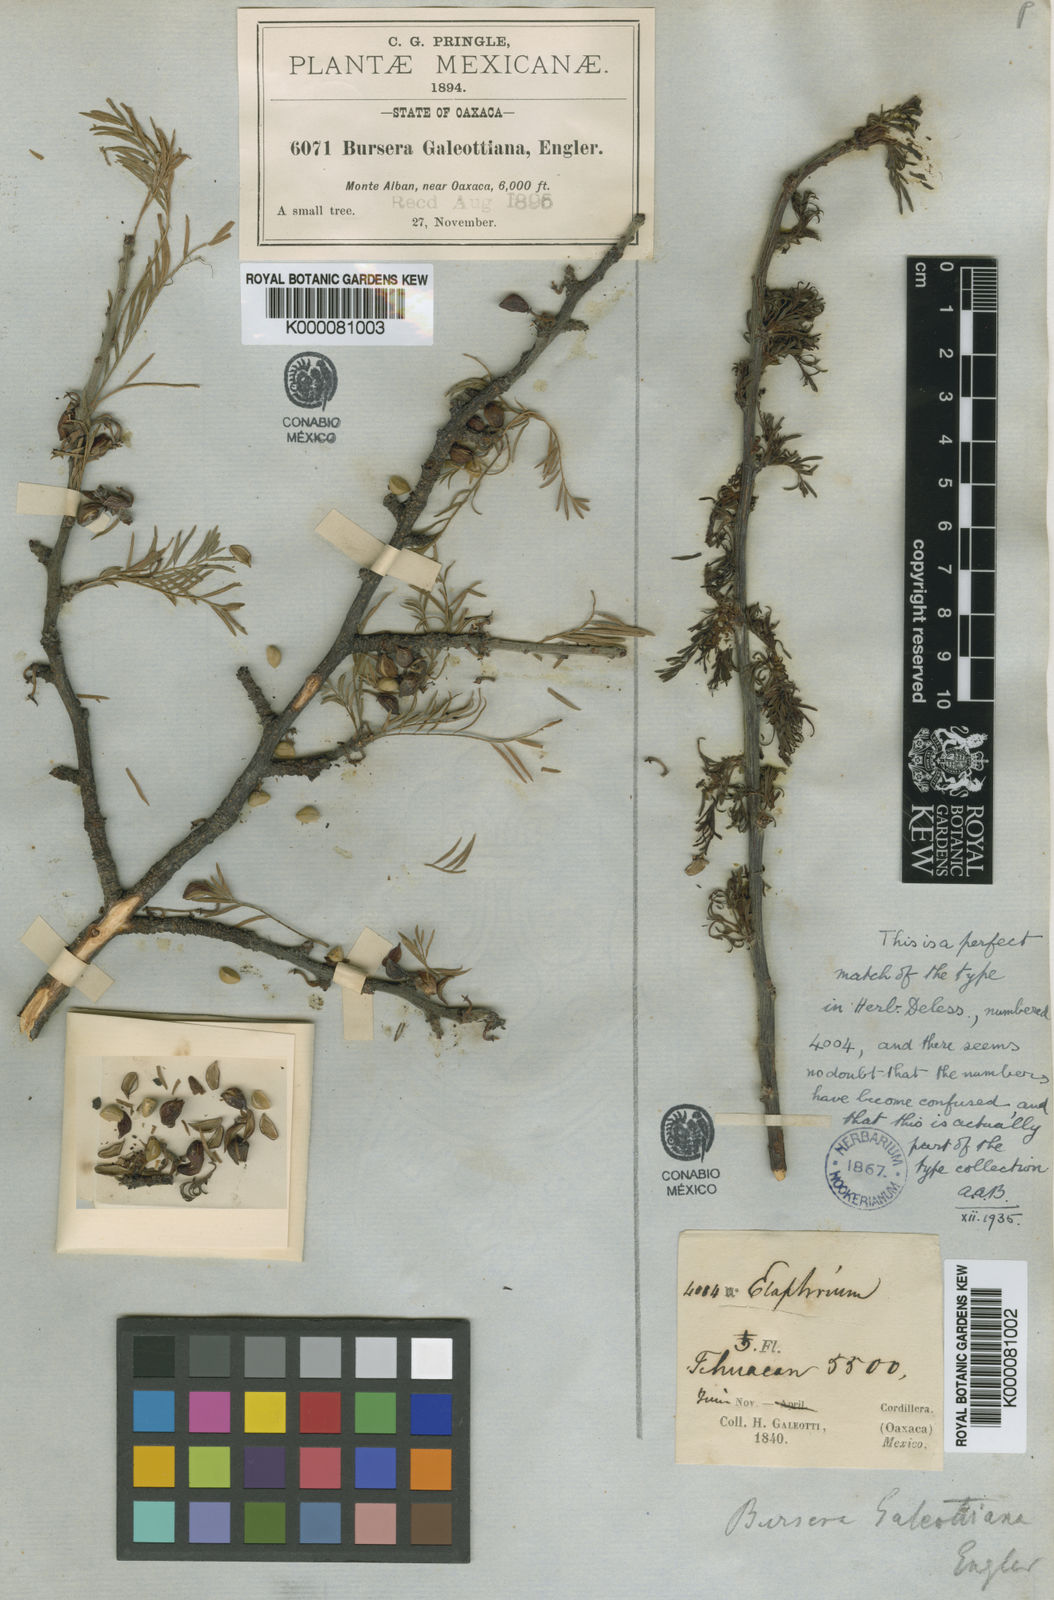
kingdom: Plantae
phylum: Tracheophyta
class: Magnoliopsida
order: Sapindales
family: Burseraceae
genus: Bursera
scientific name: Bursera galeottiana
